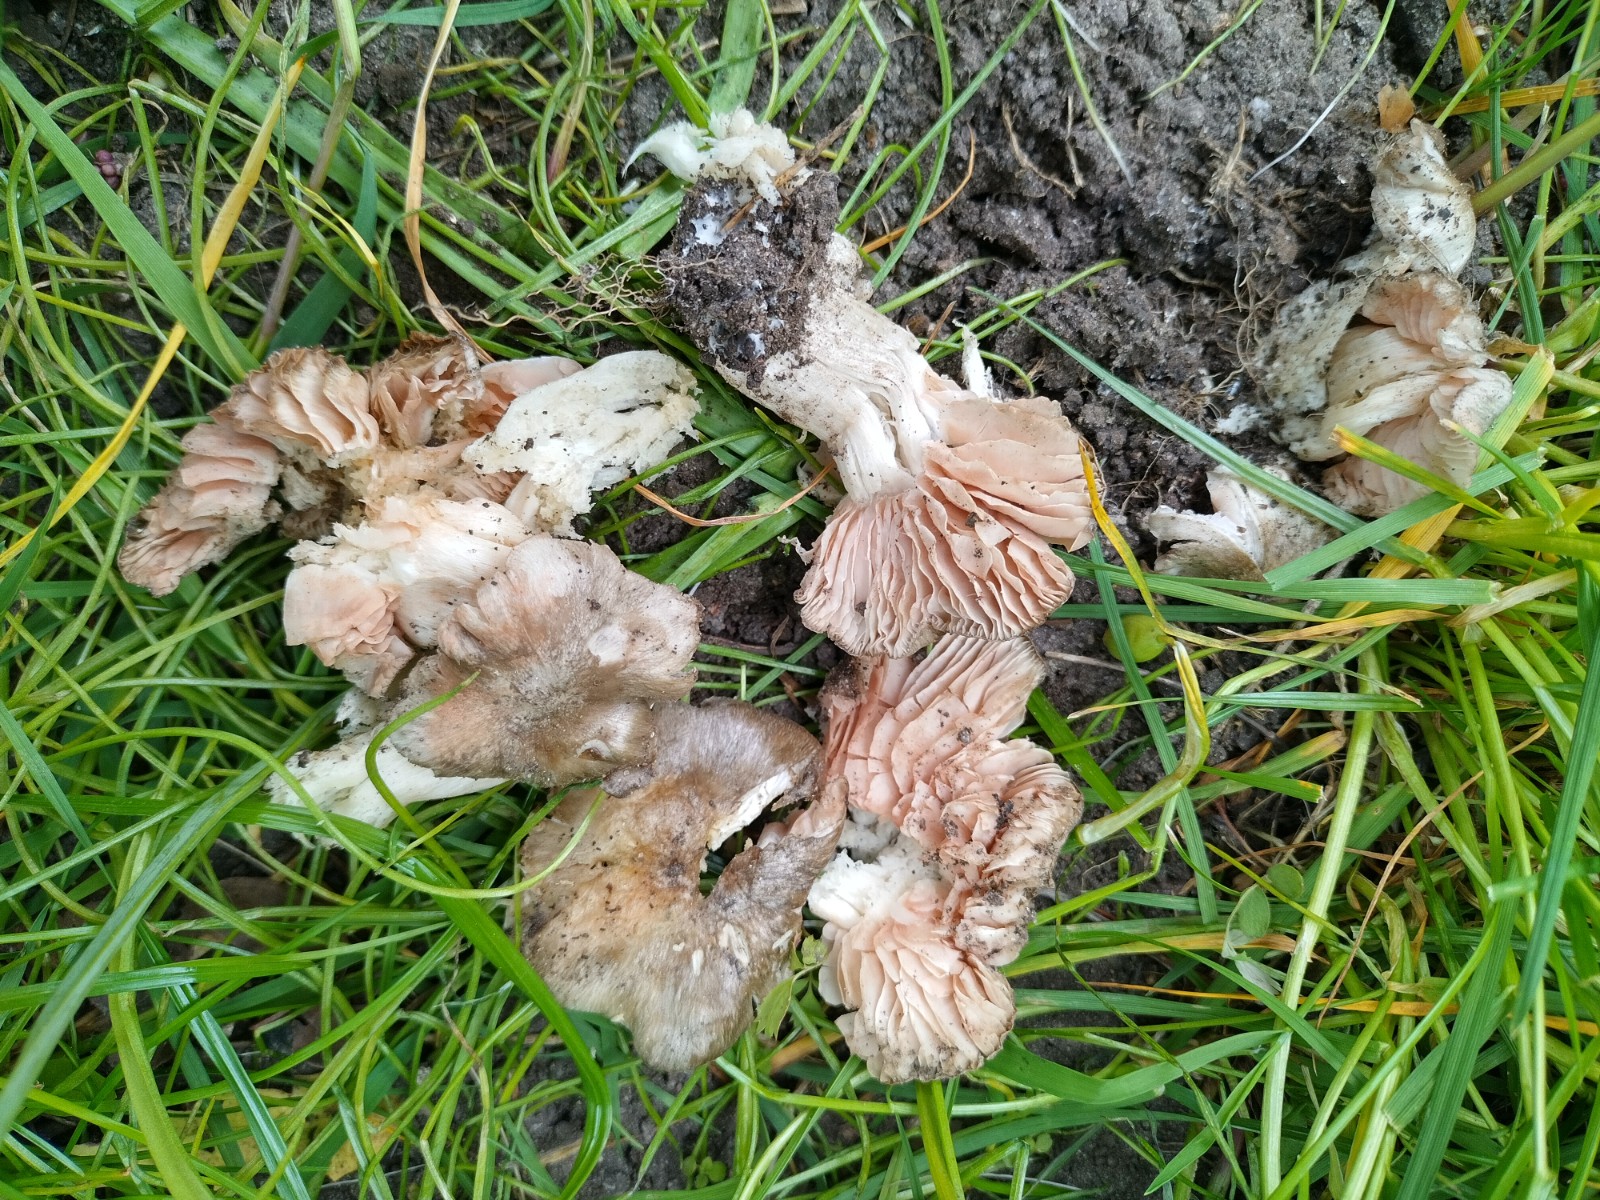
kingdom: Fungi
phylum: Basidiomycota
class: Agaricomycetes
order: Agaricales
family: Entolomataceae
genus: Entoloma
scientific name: Entoloma clypeatum
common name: flammet rødblad
